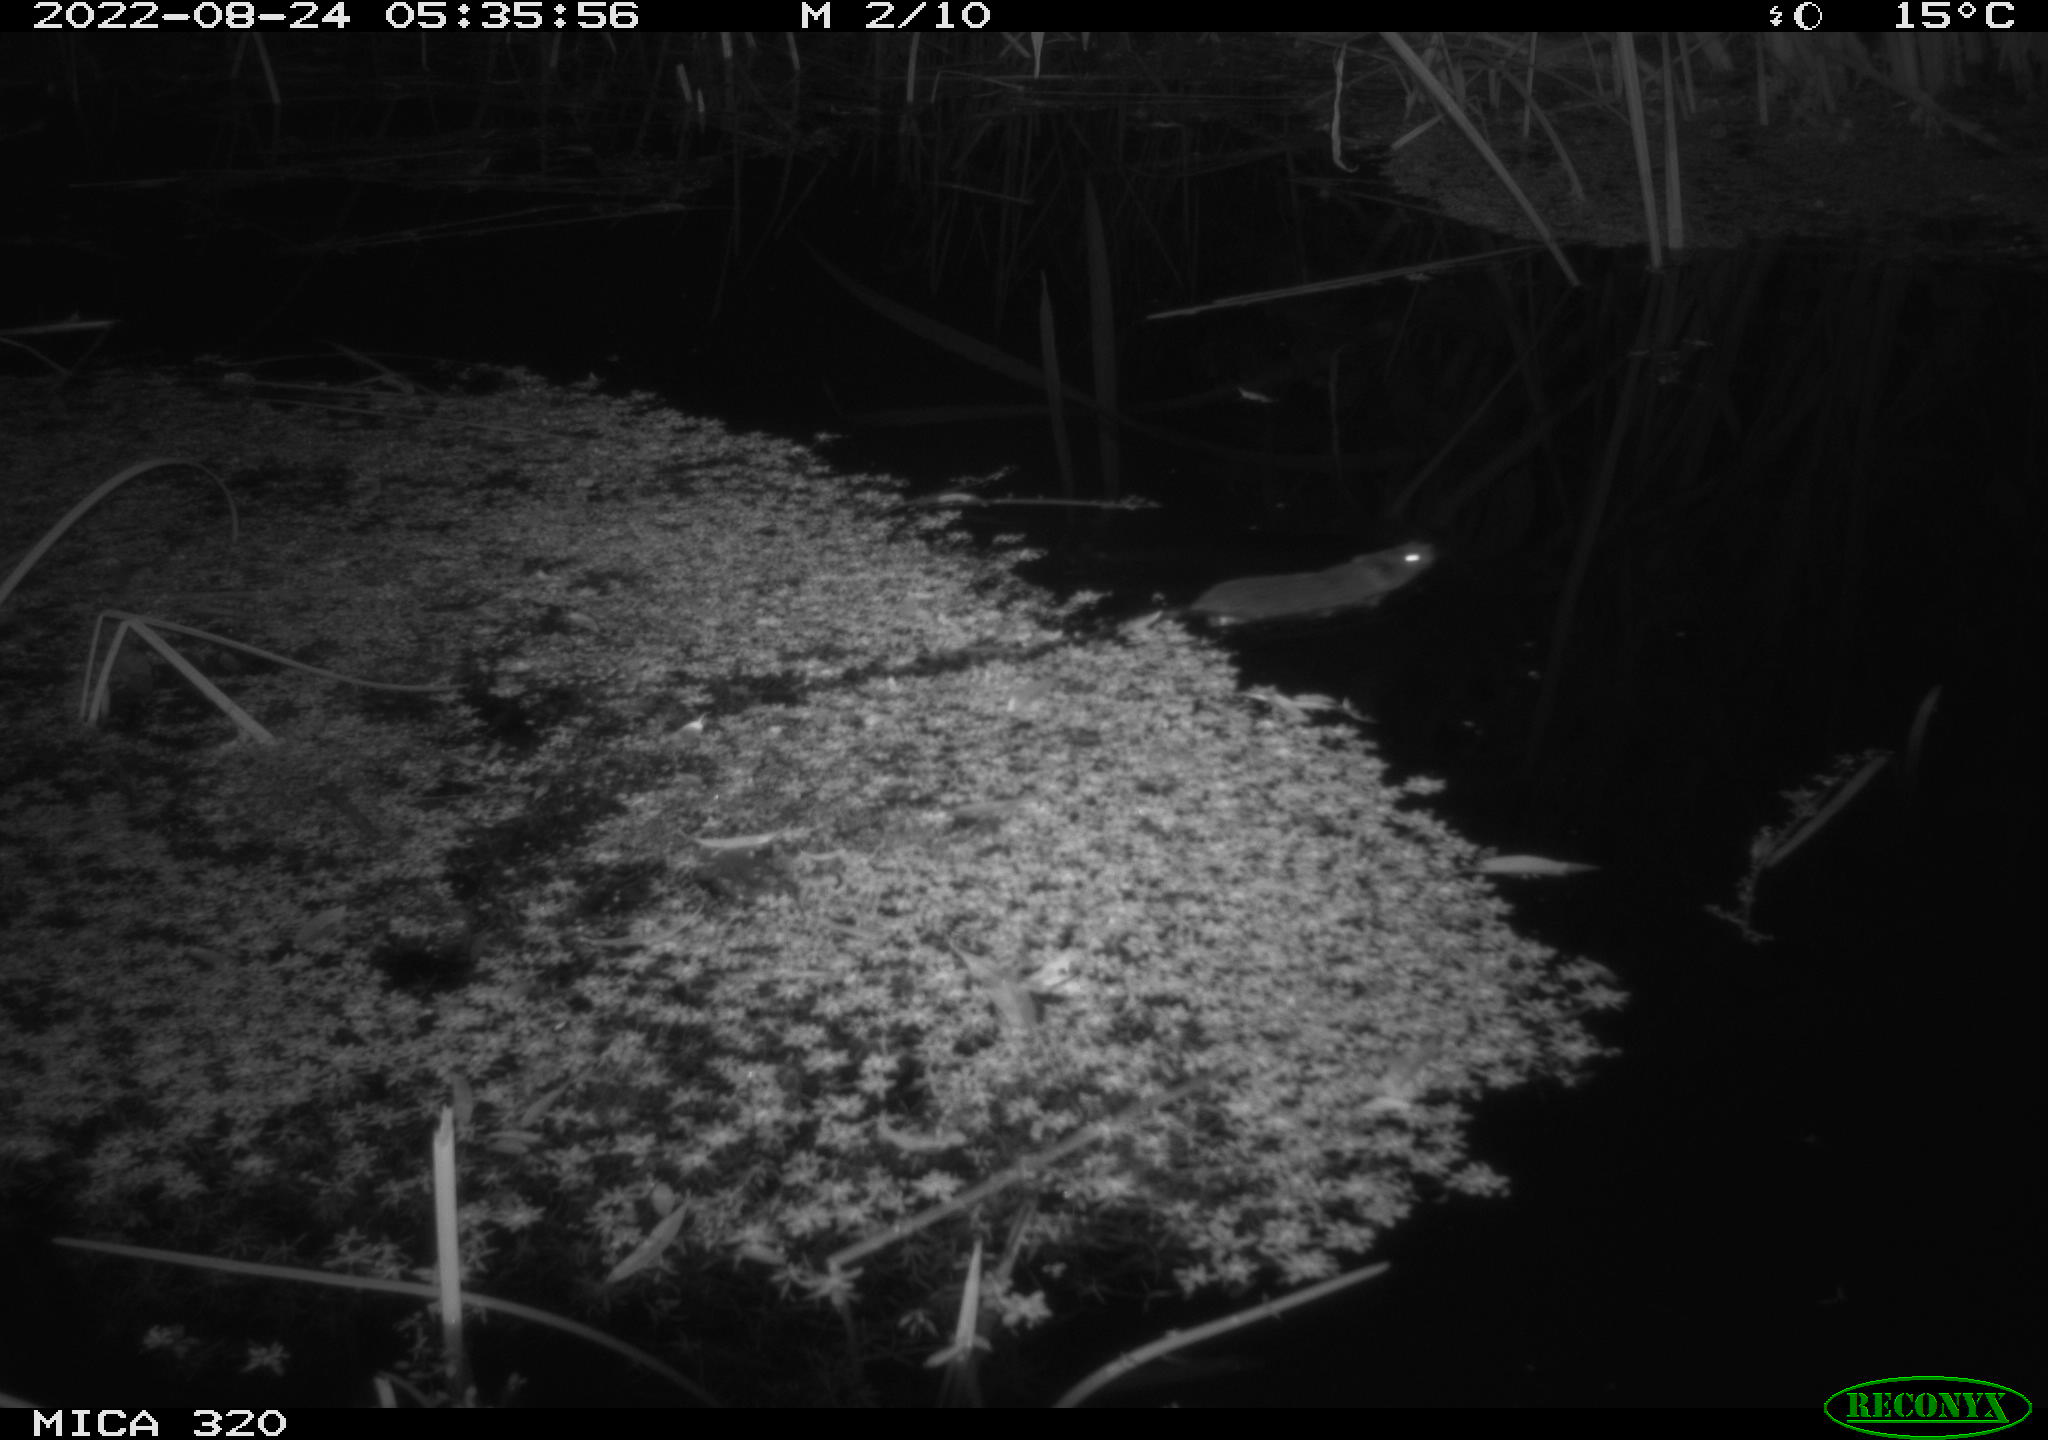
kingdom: Animalia
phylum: Chordata
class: Mammalia
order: Rodentia
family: Cricetidae
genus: Ondatra
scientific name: Ondatra zibethicus
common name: Muskrat
